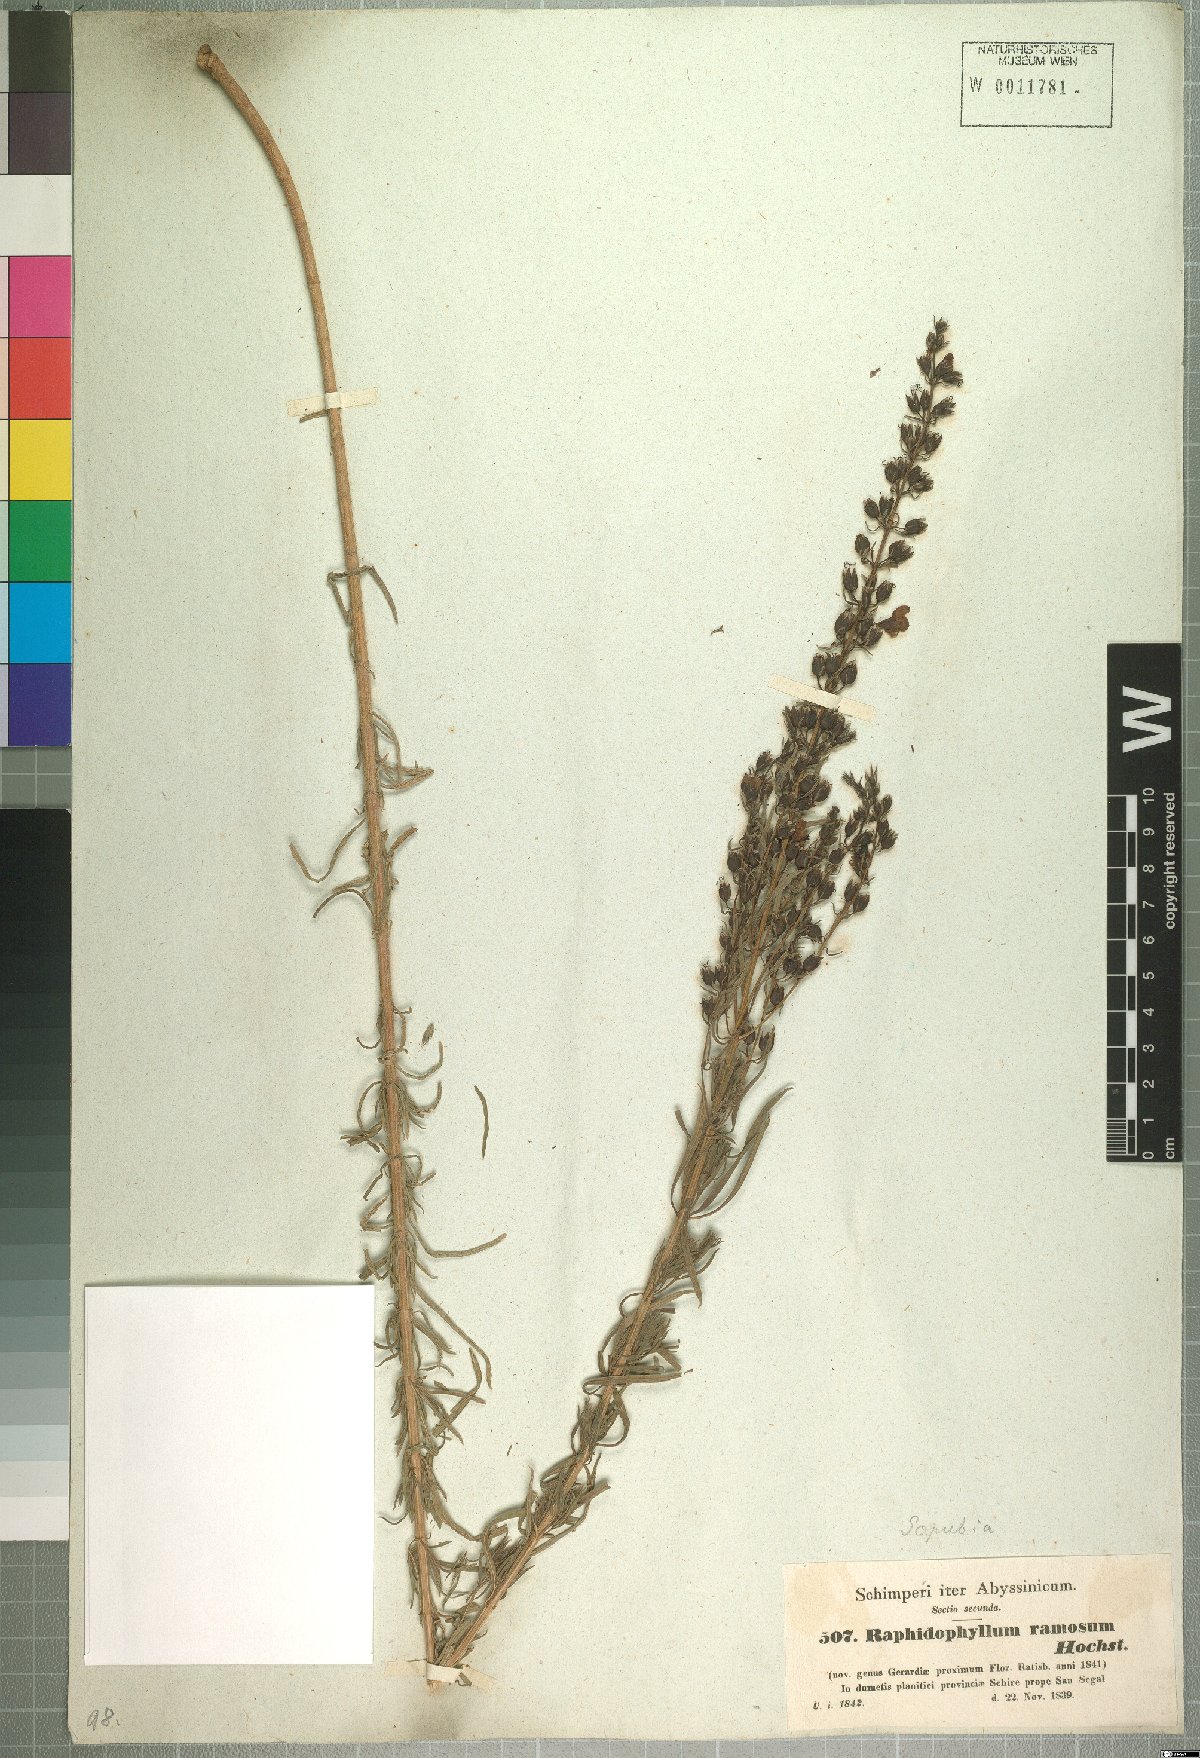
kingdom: Plantae
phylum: Tracheophyta
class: Magnoliopsida
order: Lamiales
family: Orobanchaceae
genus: Sopubia
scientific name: Sopubia ramosa
